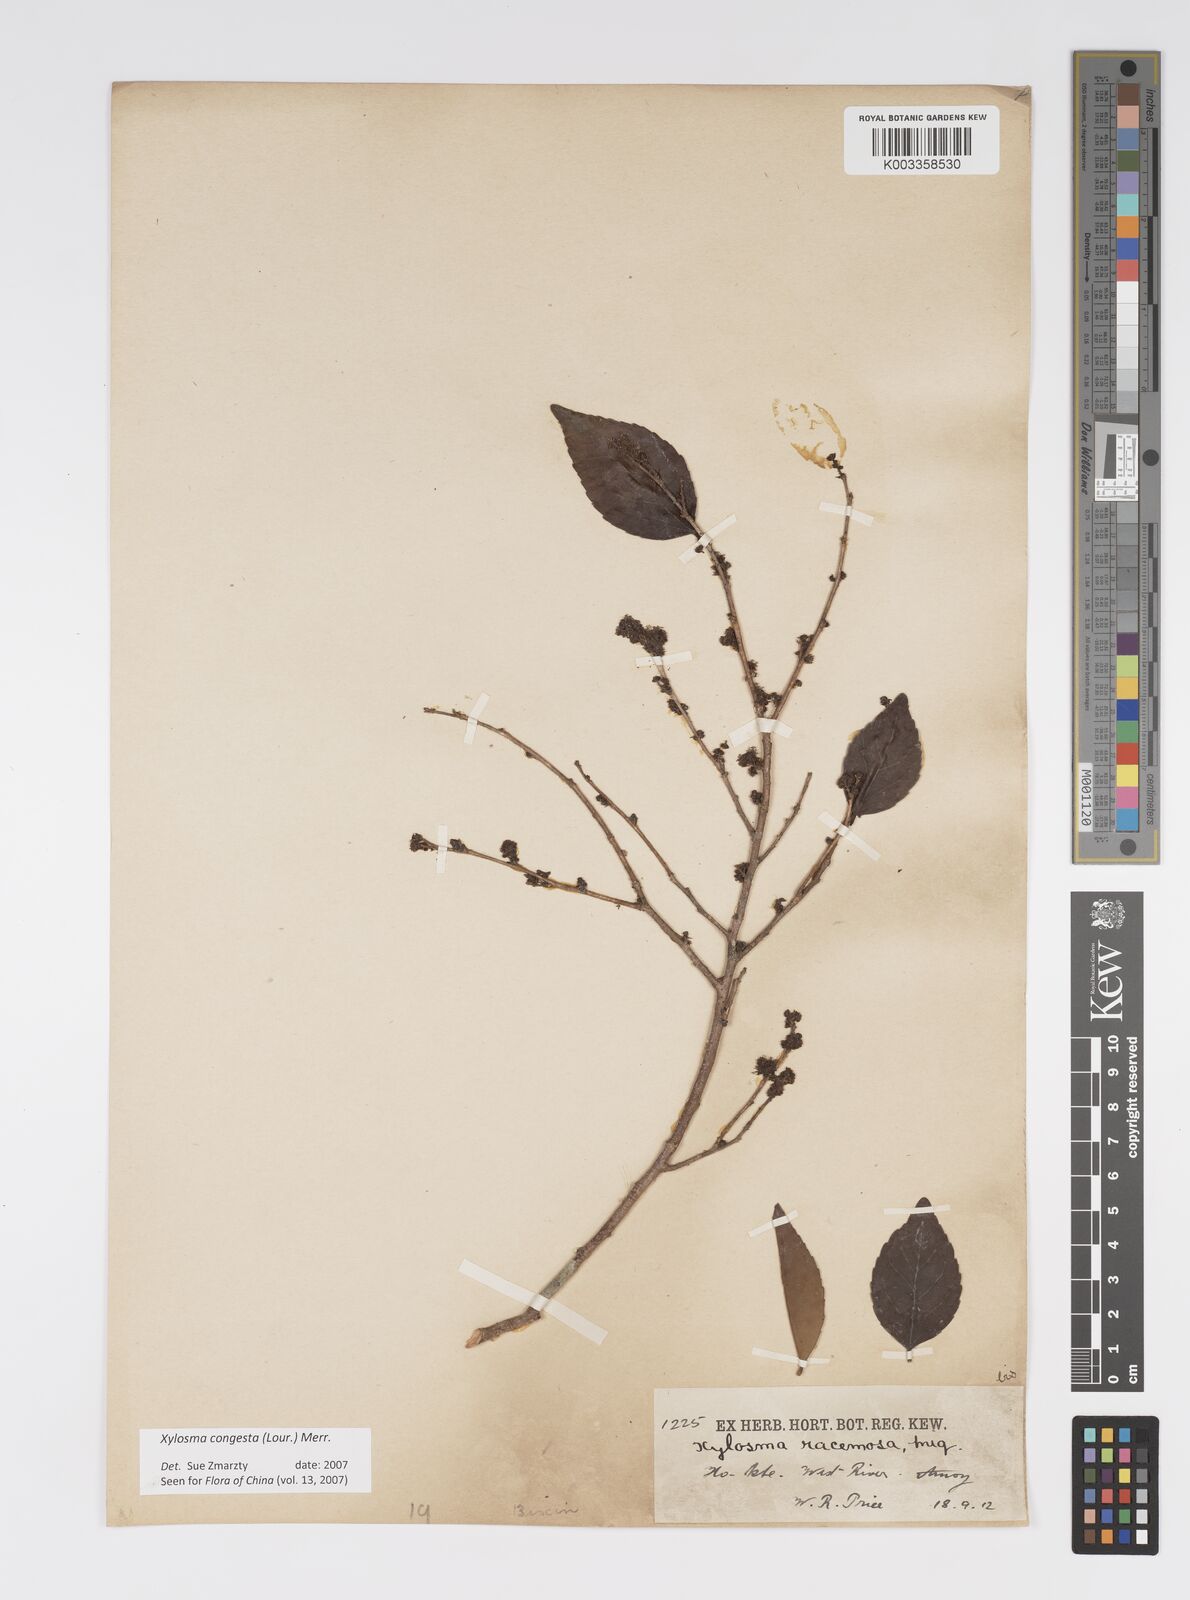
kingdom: Plantae
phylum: Tracheophyta
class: Magnoliopsida
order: Malpighiales
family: Salicaceae
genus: Xylosma
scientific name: Xylosma racemosum
